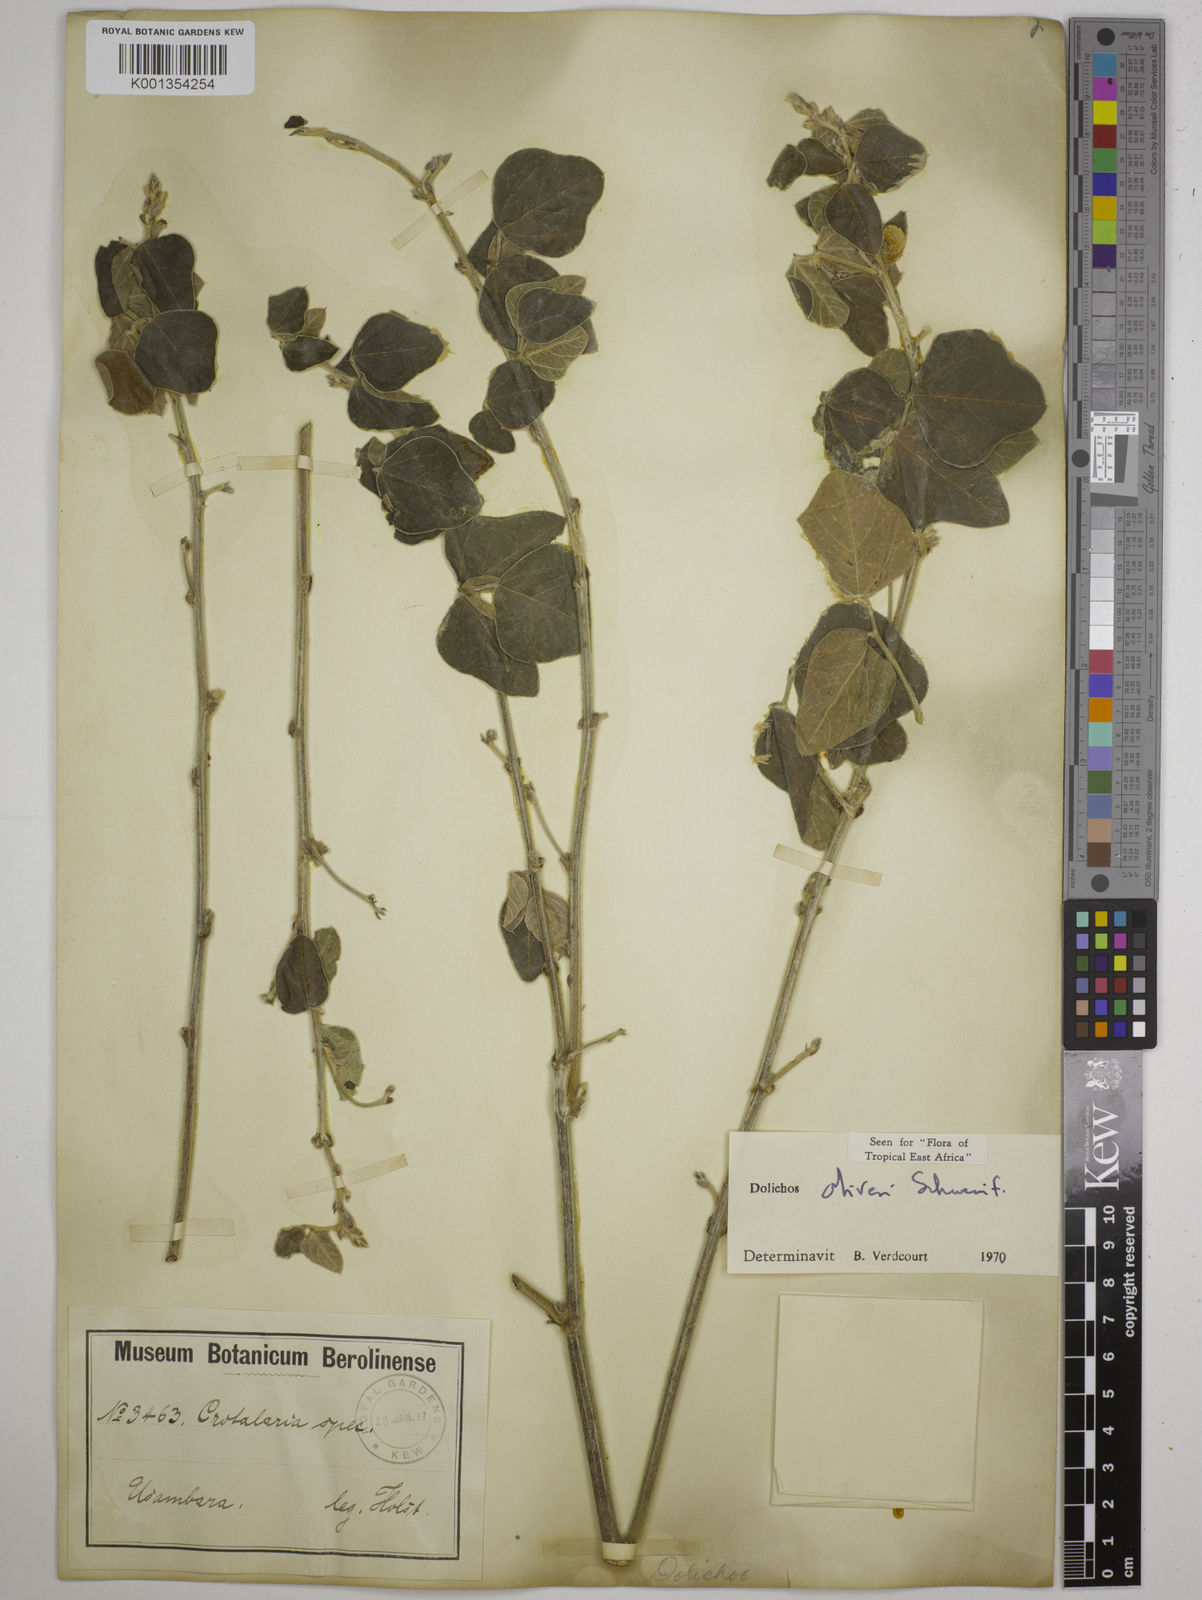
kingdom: Plantae
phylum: Tracheophyta
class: Magnoliopsida
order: Fabales
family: Fabaceae
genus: Dolichos
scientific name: Dolichos oliveri
